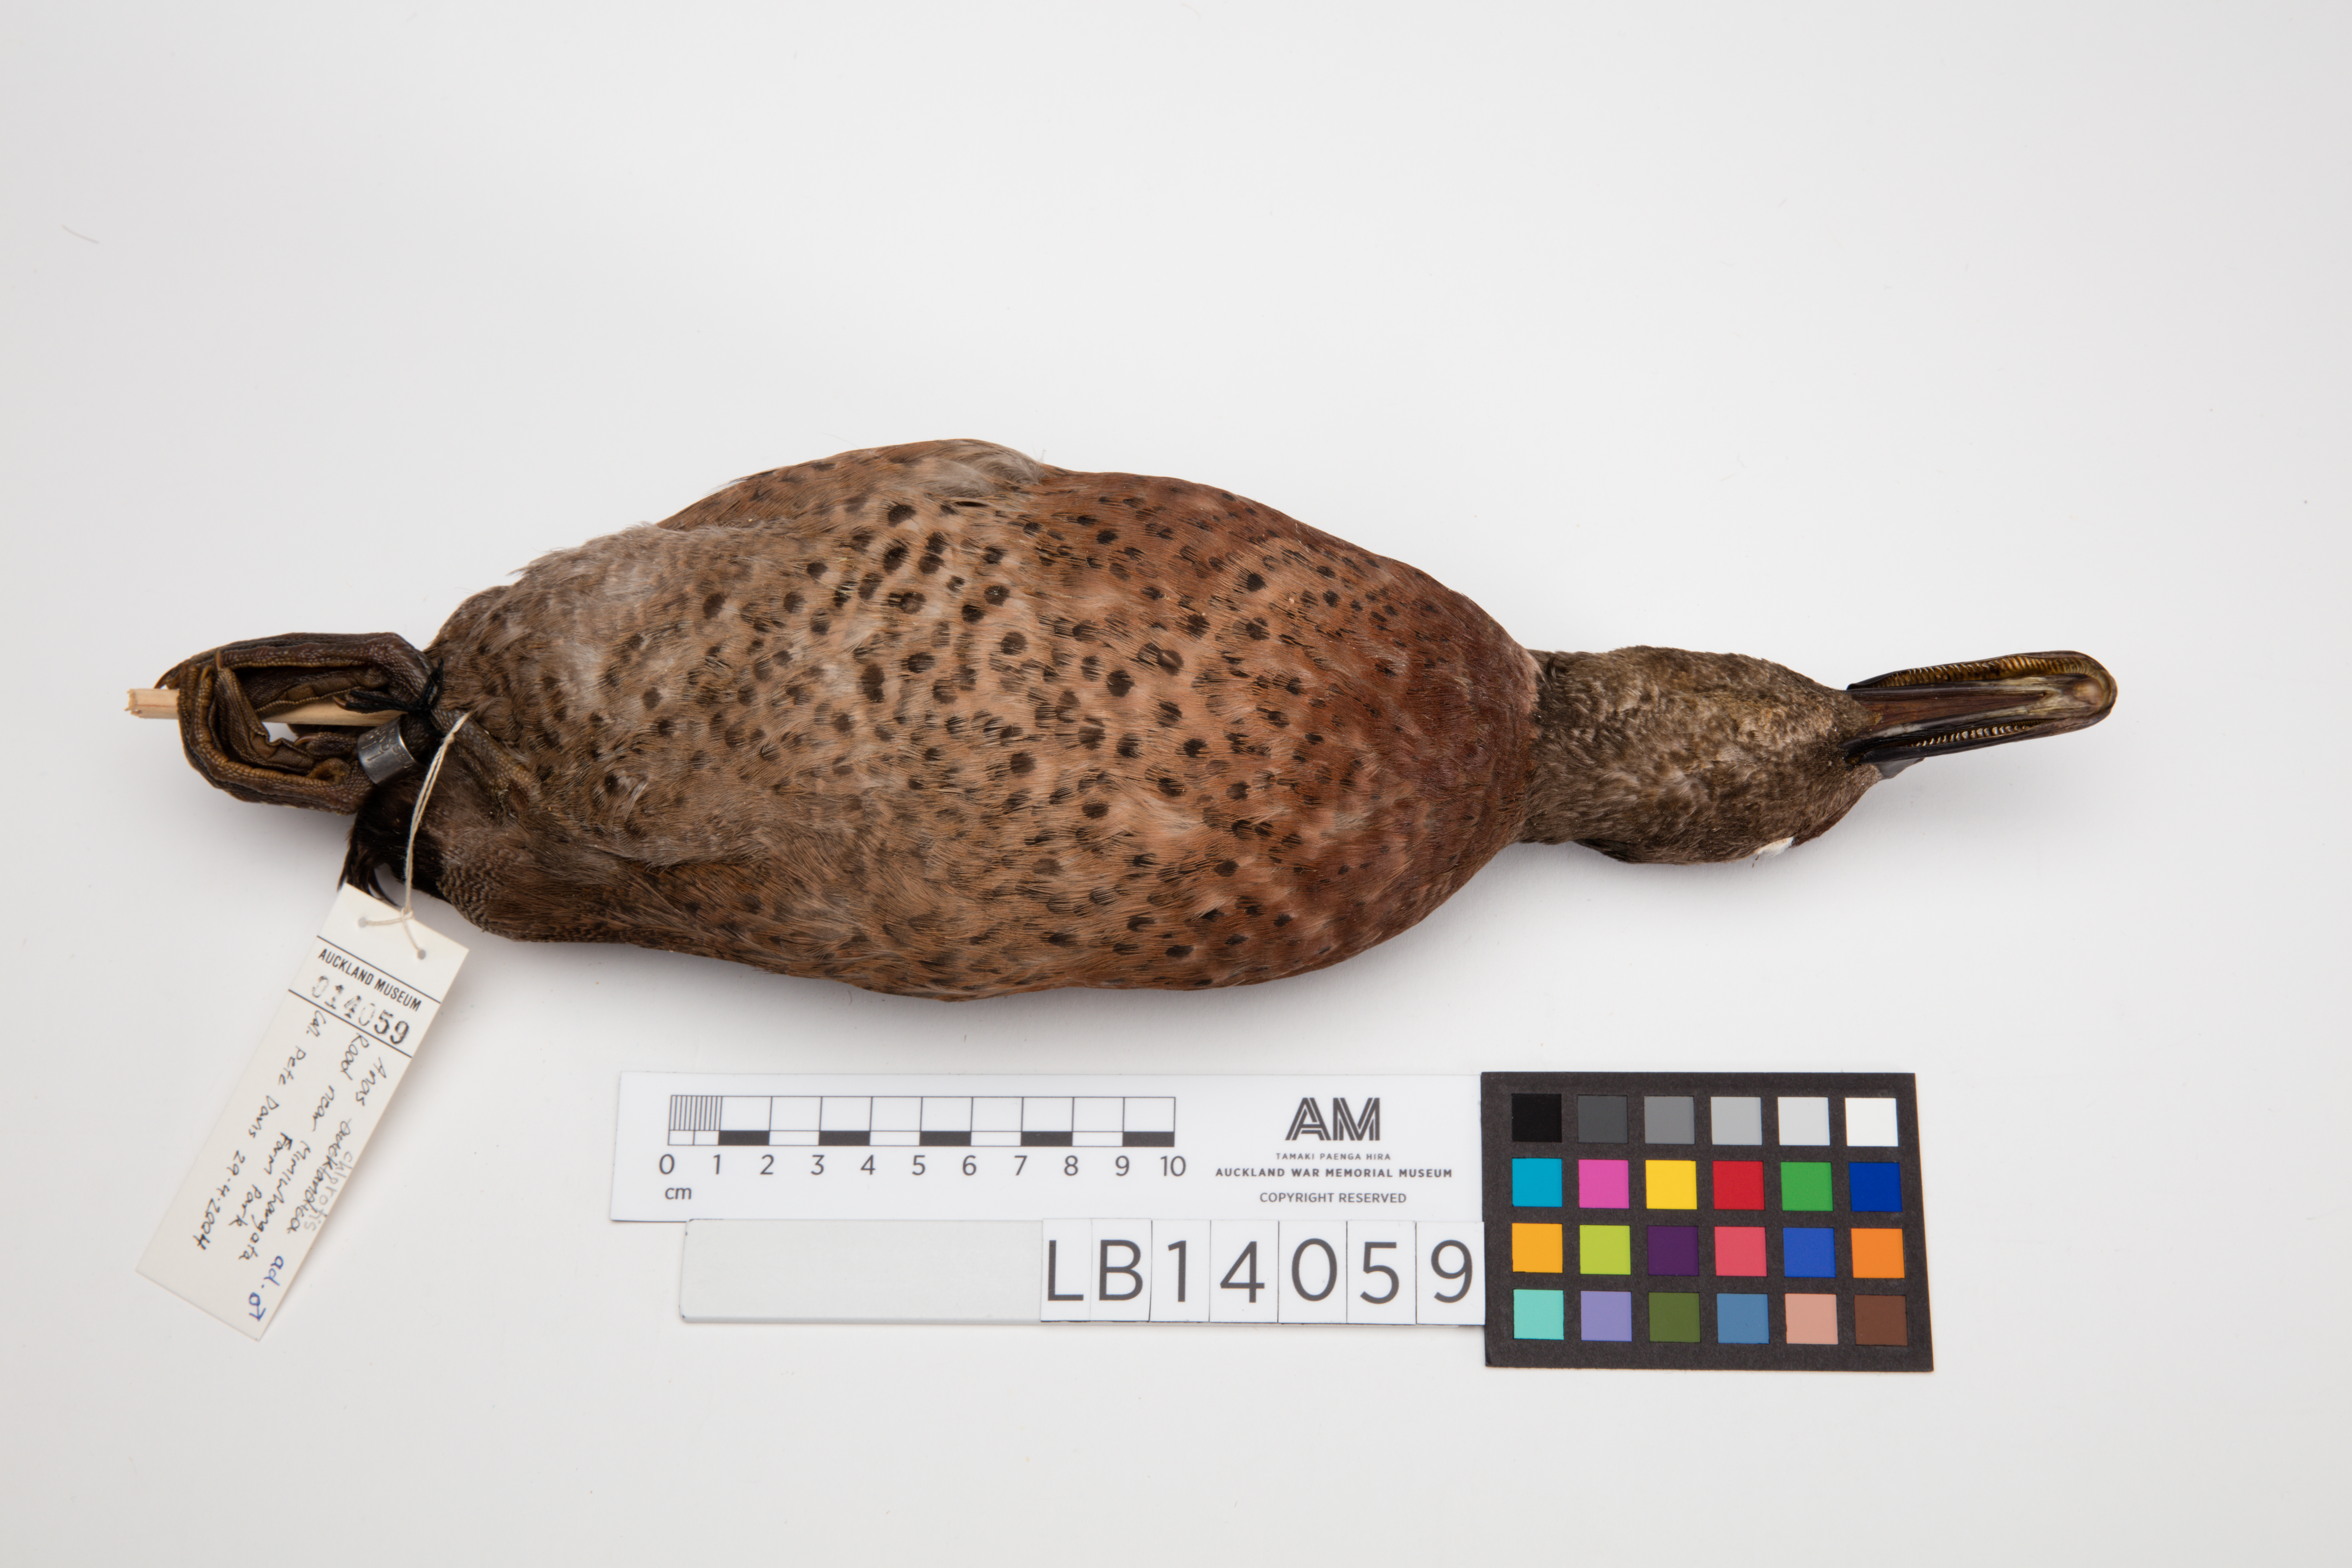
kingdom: Animalia
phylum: Chordata
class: Aves
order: Anseriformes
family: Anatidae
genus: Anas
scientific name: Anas chlorotis
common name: Brown teal
